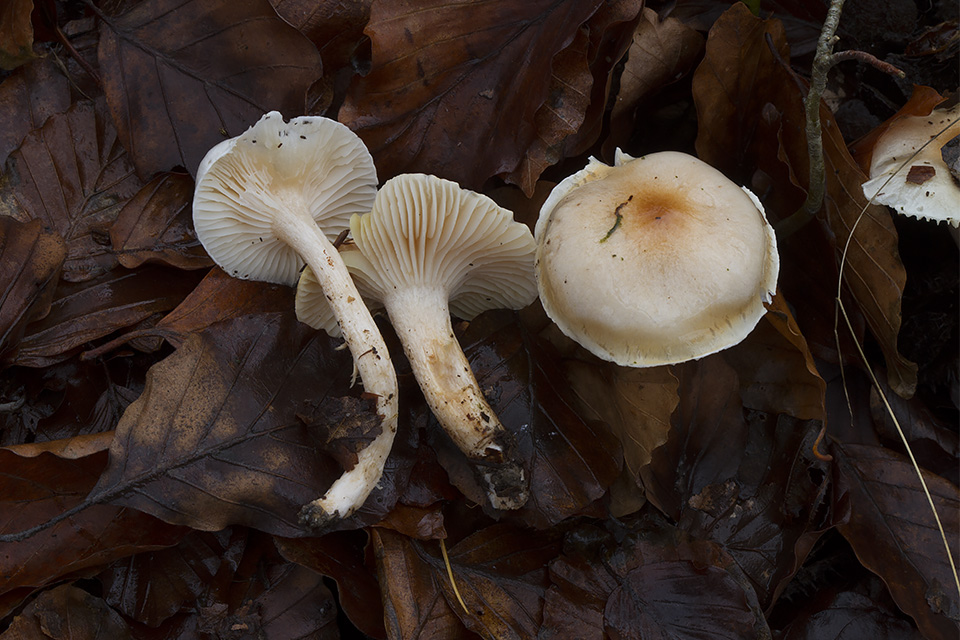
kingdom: Fungi
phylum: Basidiomycota
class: Agaricomycetes
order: Agaricales
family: Hygrophoraceae
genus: Hygrophorus
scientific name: Hygrophorus unicolor
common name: orangeøjet sneglehat
